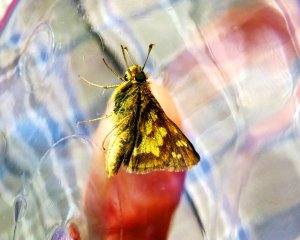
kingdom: Animalia
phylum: Arthropoda
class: Insecta
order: Lepidoptera
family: Hesperiidae
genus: Polites
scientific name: Polites coras
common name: Peck's Skipper
